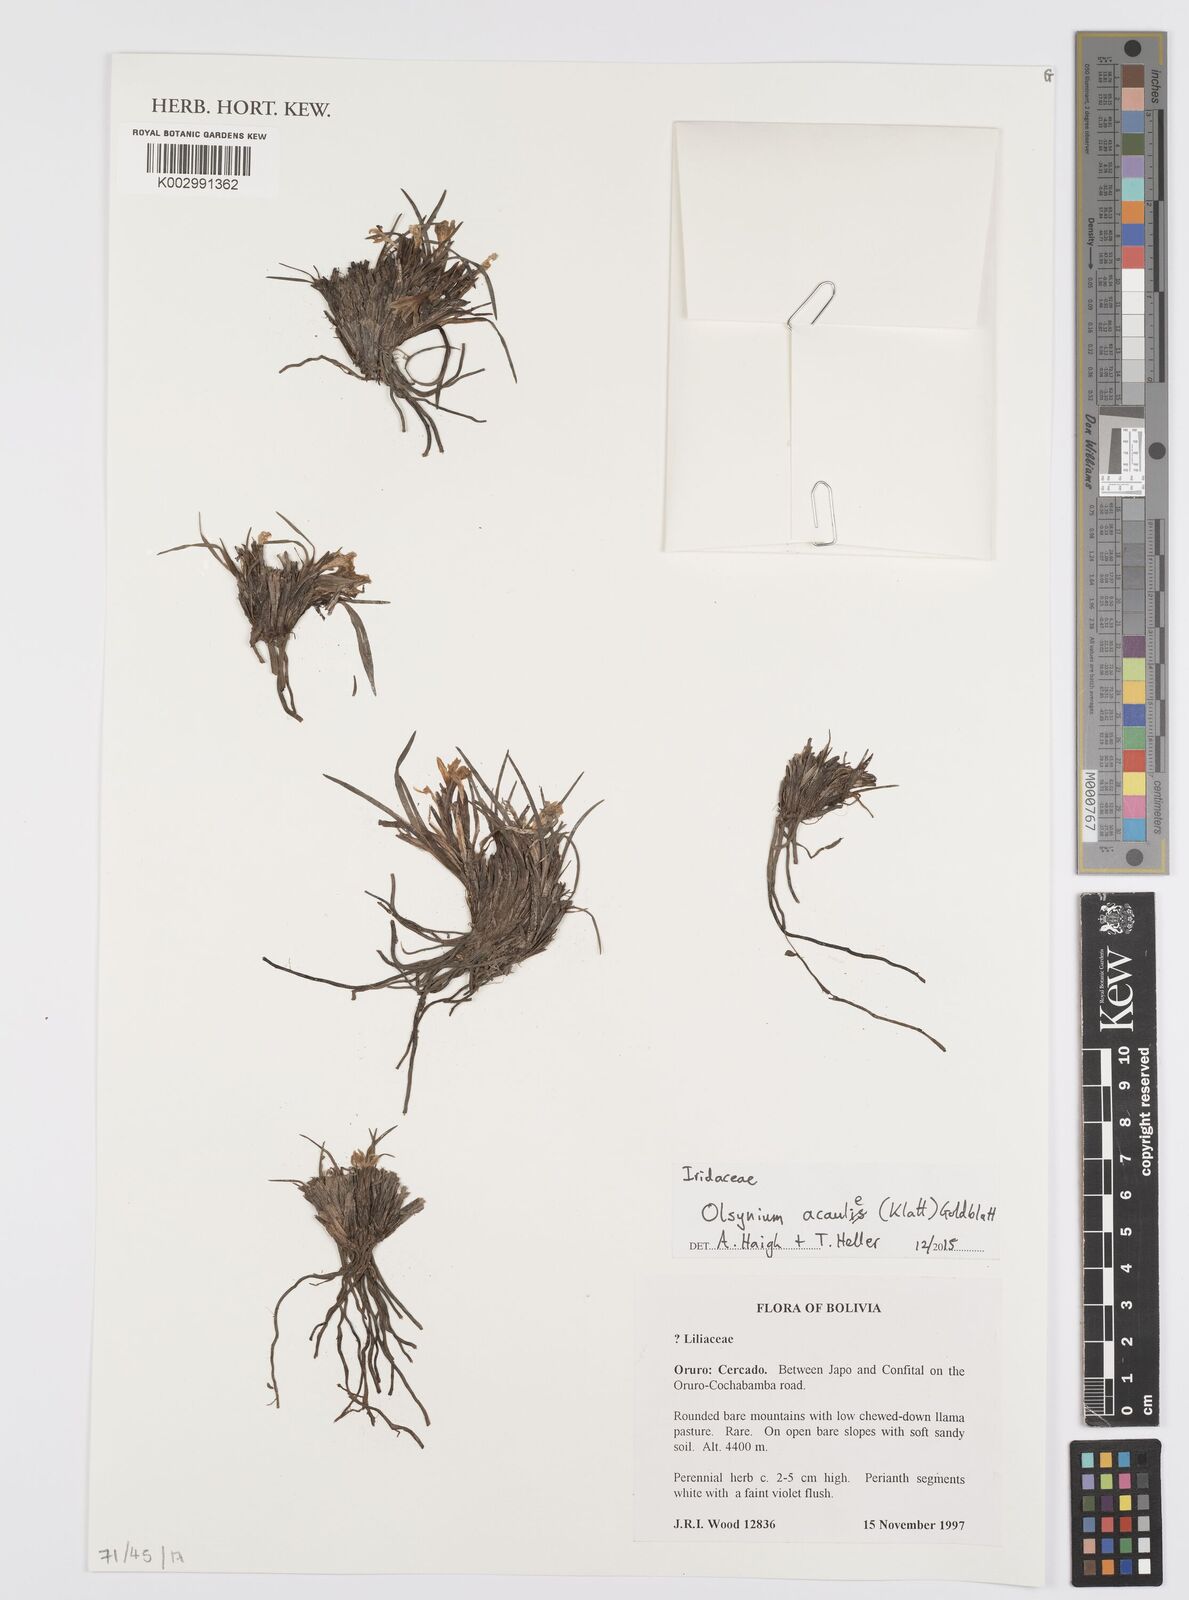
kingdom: Plantae
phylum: Tracheophyta
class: Liliopsida
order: Asparagales
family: Iridaceae
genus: Olsynium
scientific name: Olsynium acaule
